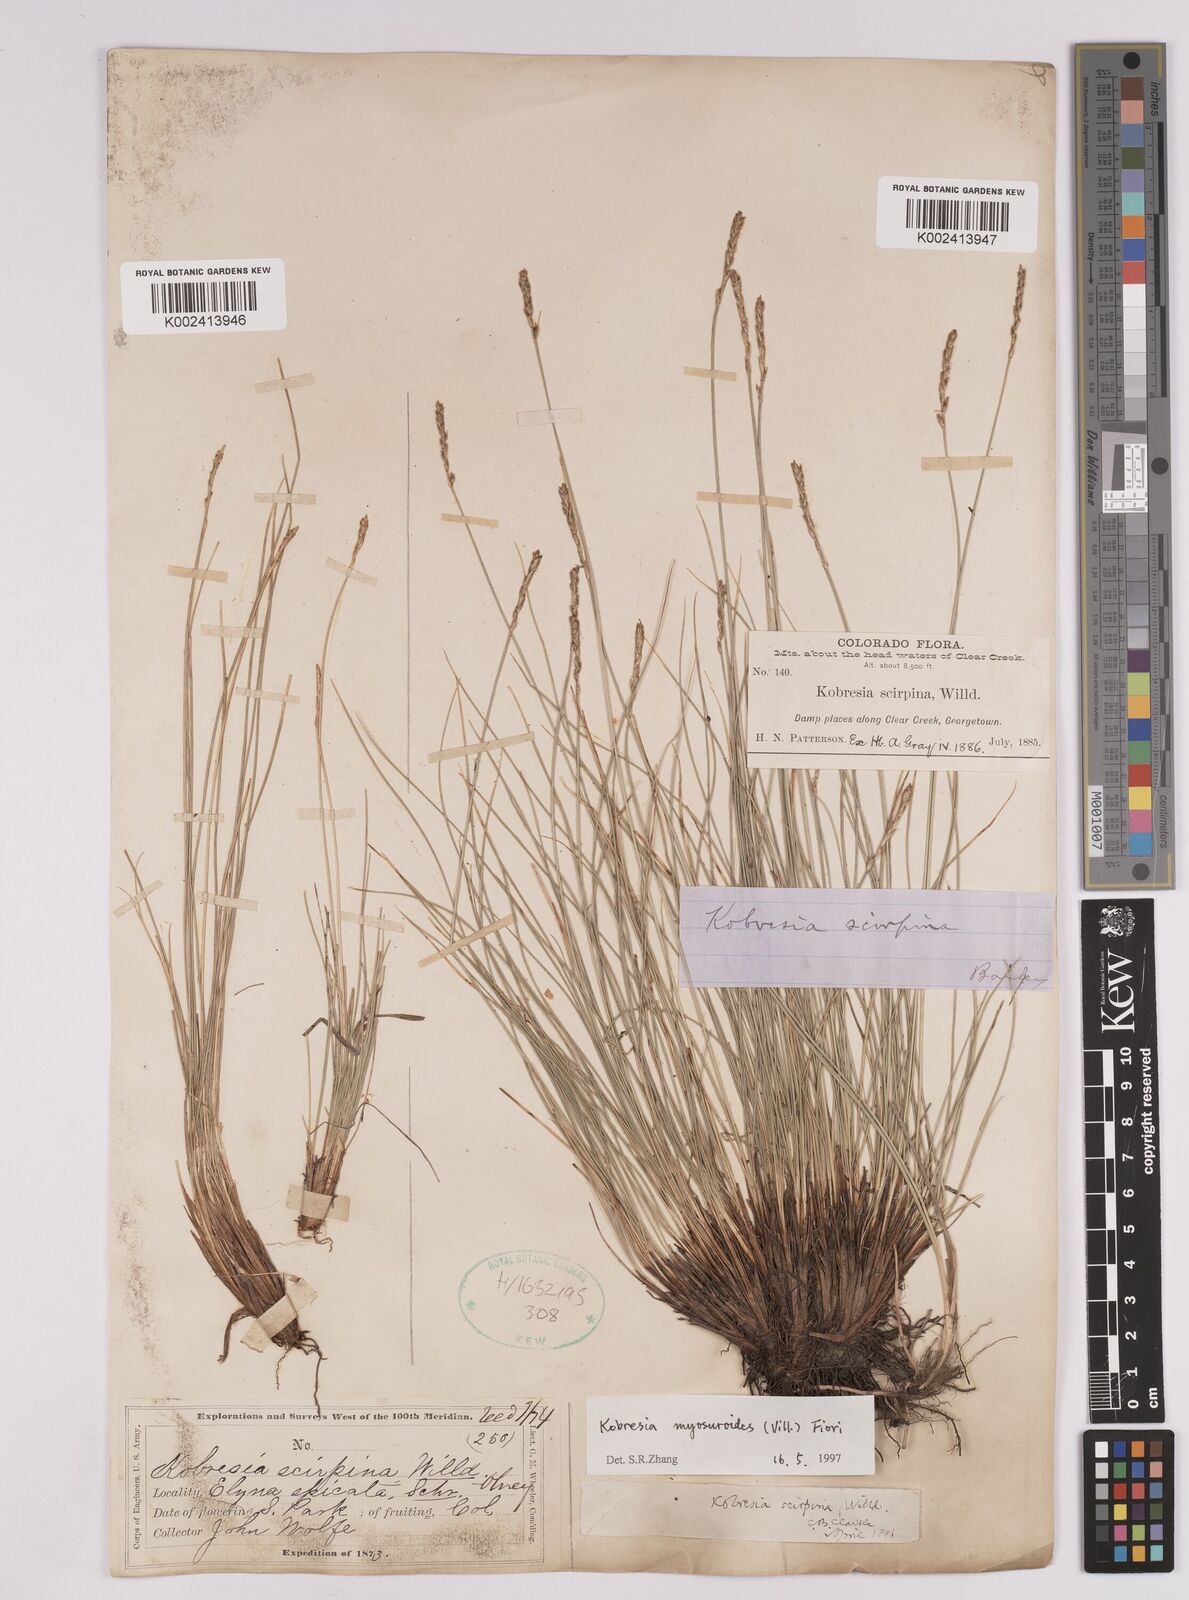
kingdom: Plantae
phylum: Tracheophyta
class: Liliopsida
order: Poales
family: Cyperaceae
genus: Carex
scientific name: Carex myosuroides
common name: Bellard's bog sedge
